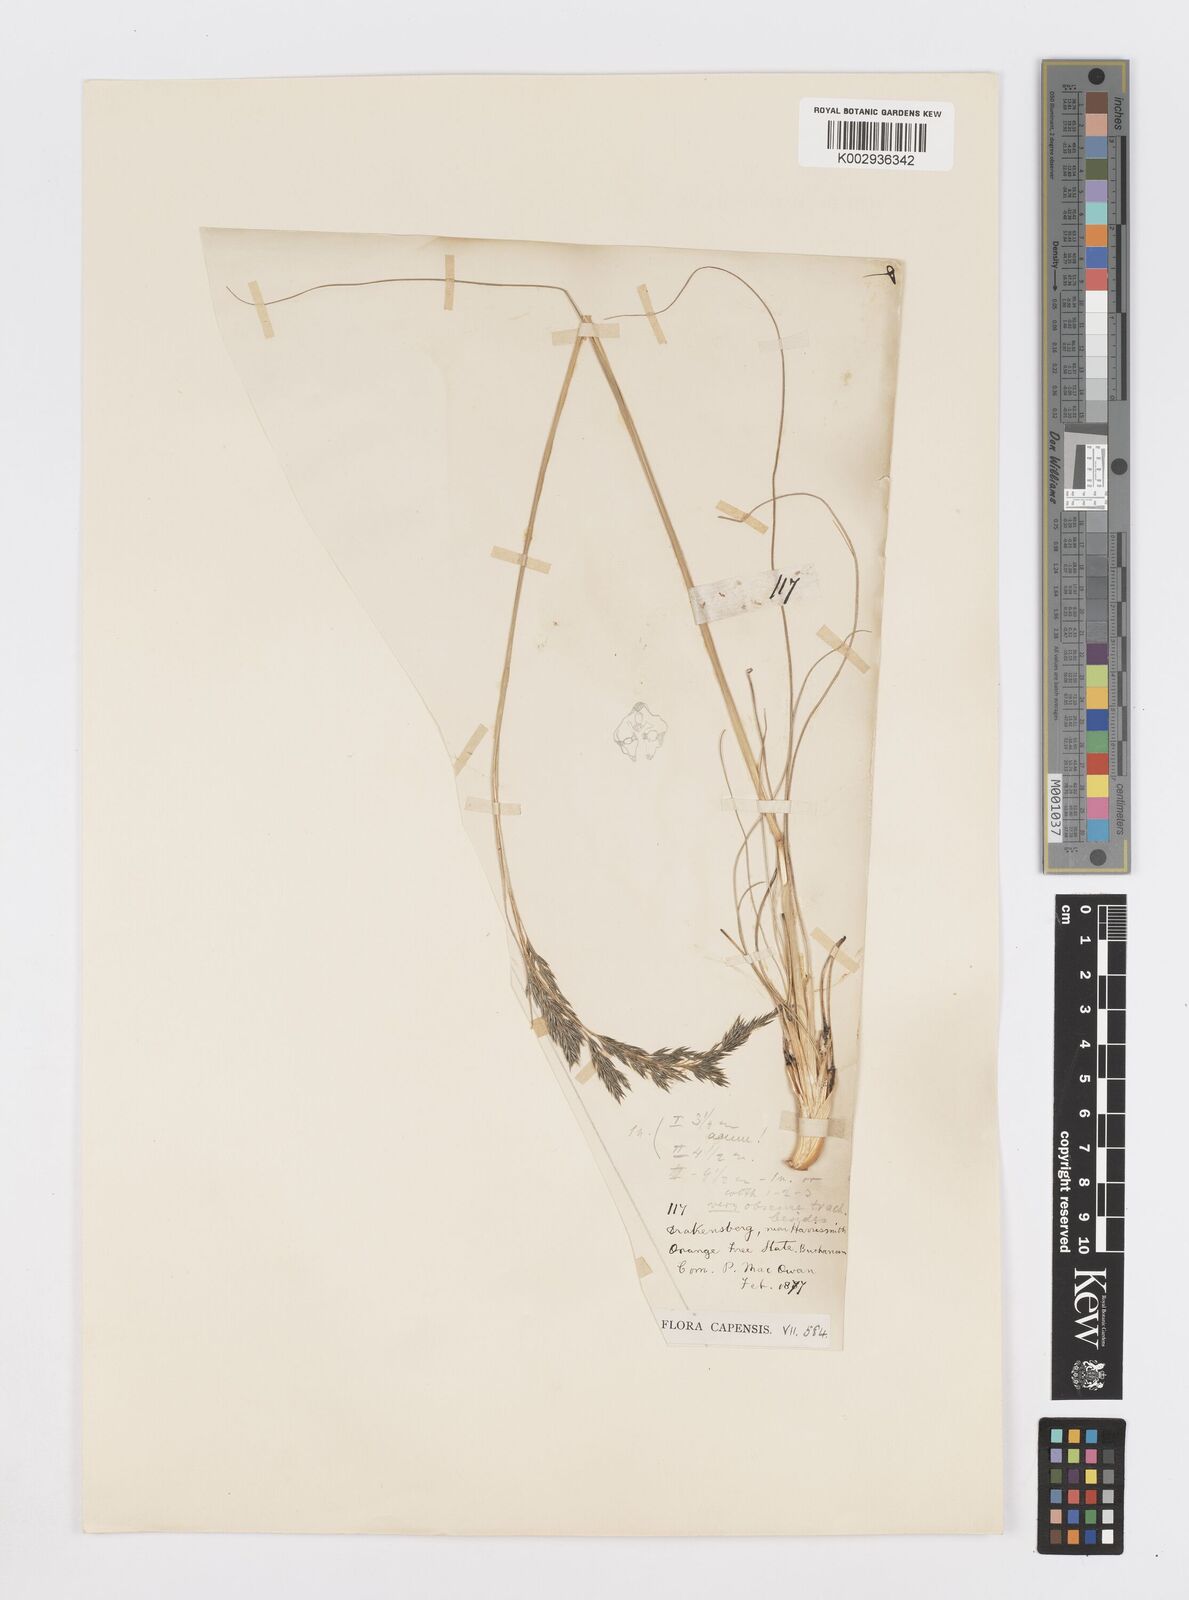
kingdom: Plantae
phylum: Tracheophyta
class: Liliopsida
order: Poales
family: Poaceae
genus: Sporobolus
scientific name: Sporobolus centrifugus
